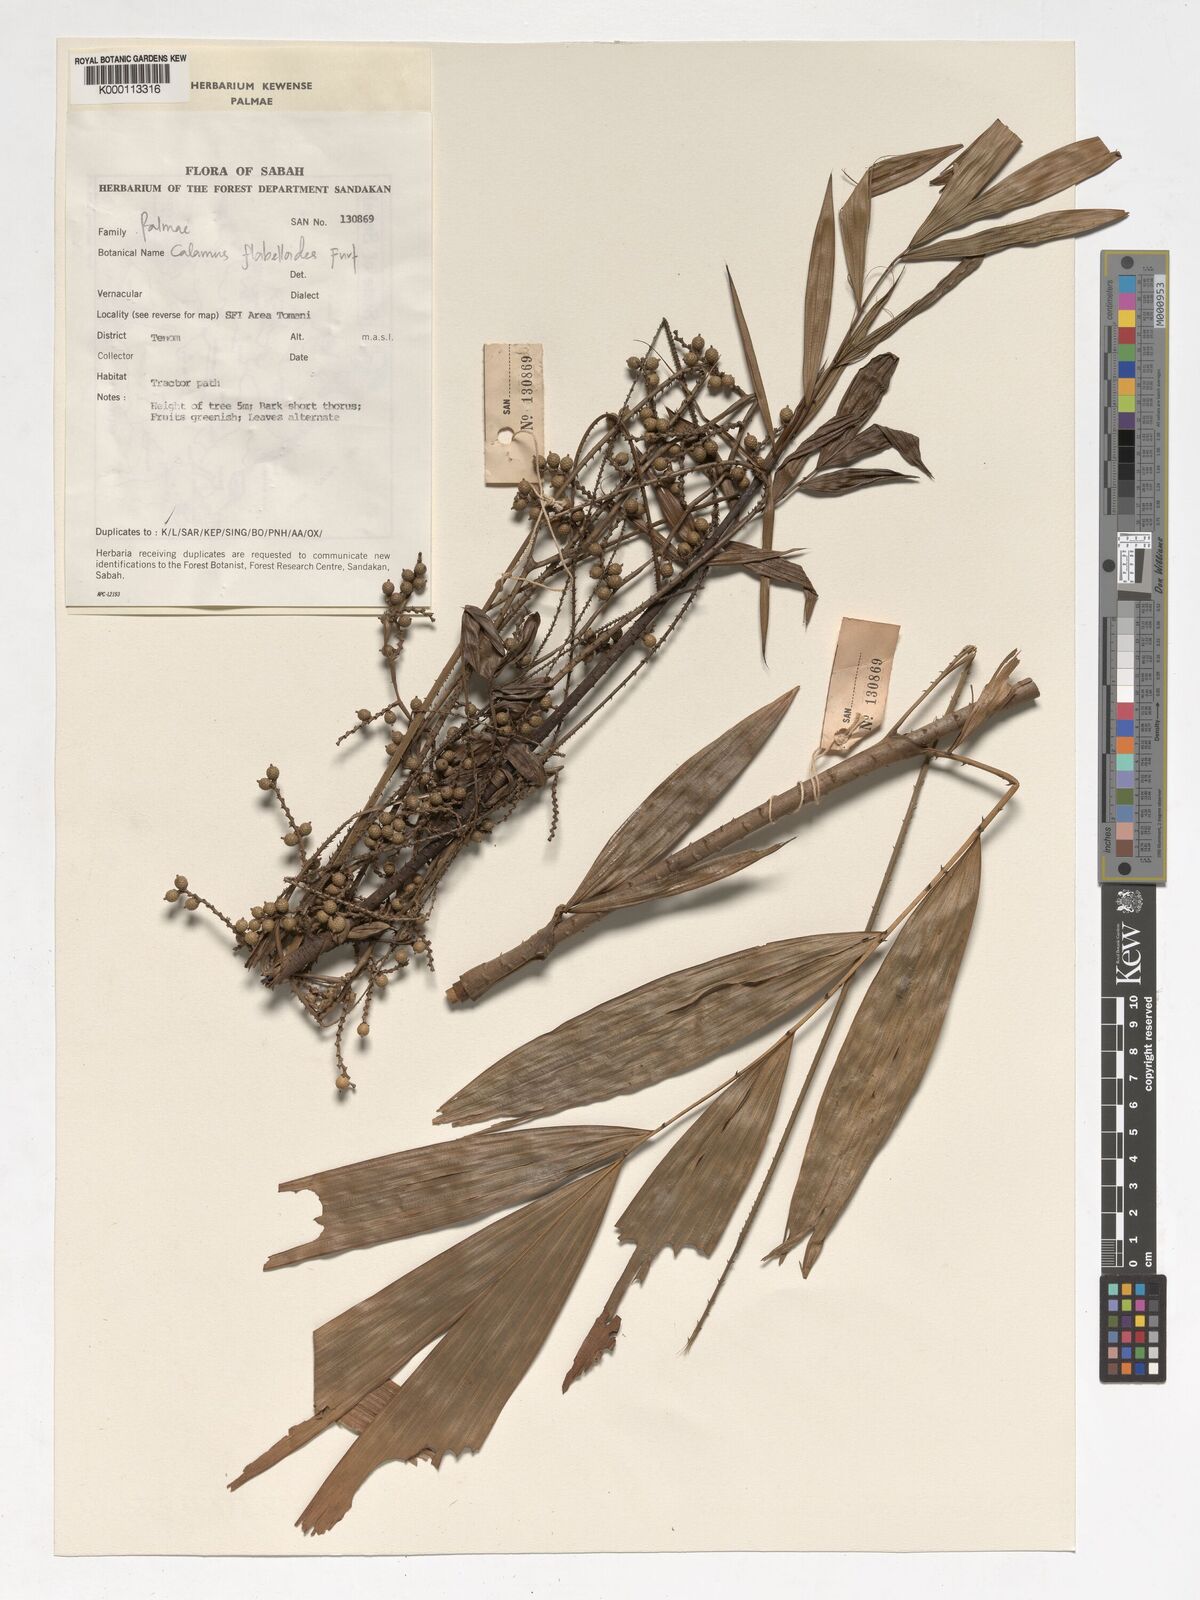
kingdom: Plantae
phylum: Tracheophyta
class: Liliopsida
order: Arecales
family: Arecaceae
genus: Calamus
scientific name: Calamus flabellatus
